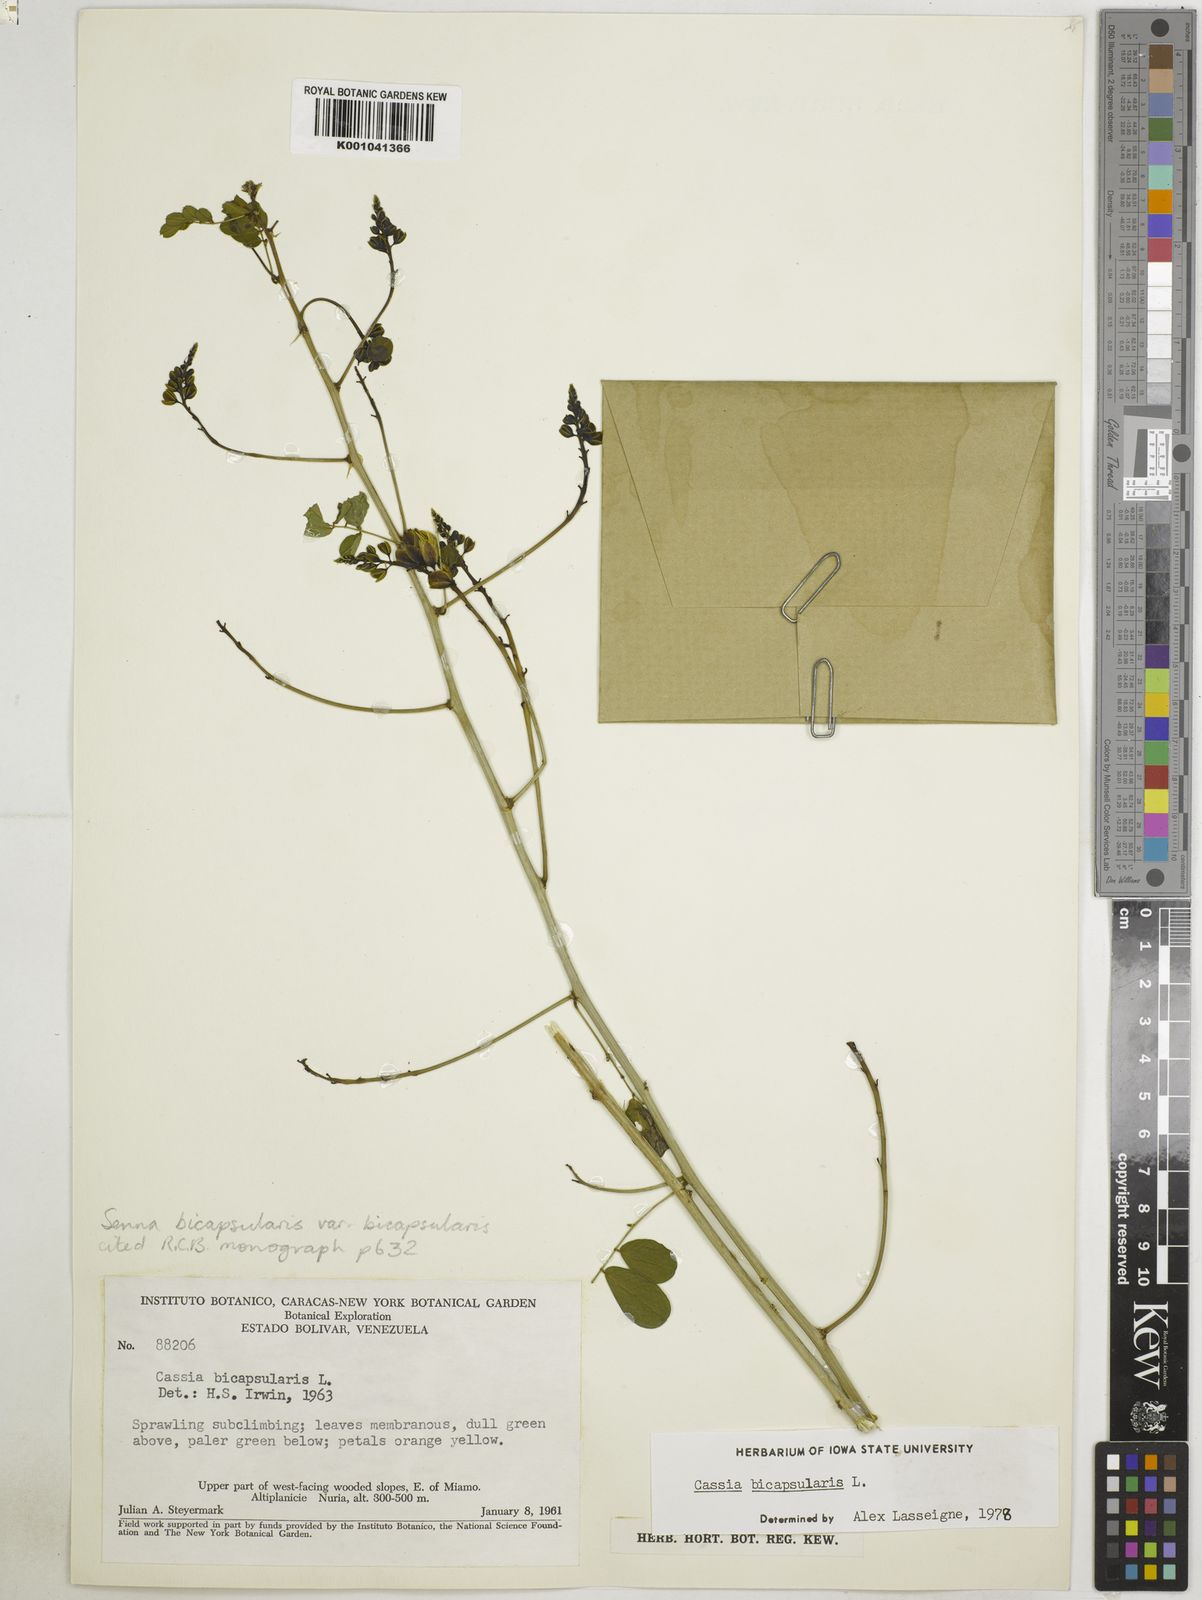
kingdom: Plantae
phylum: Tracheophyta
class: Magnoliopsida
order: Fabales
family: Fabaceae
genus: Senna
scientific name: Senna bicapsularis
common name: Christmasbush
